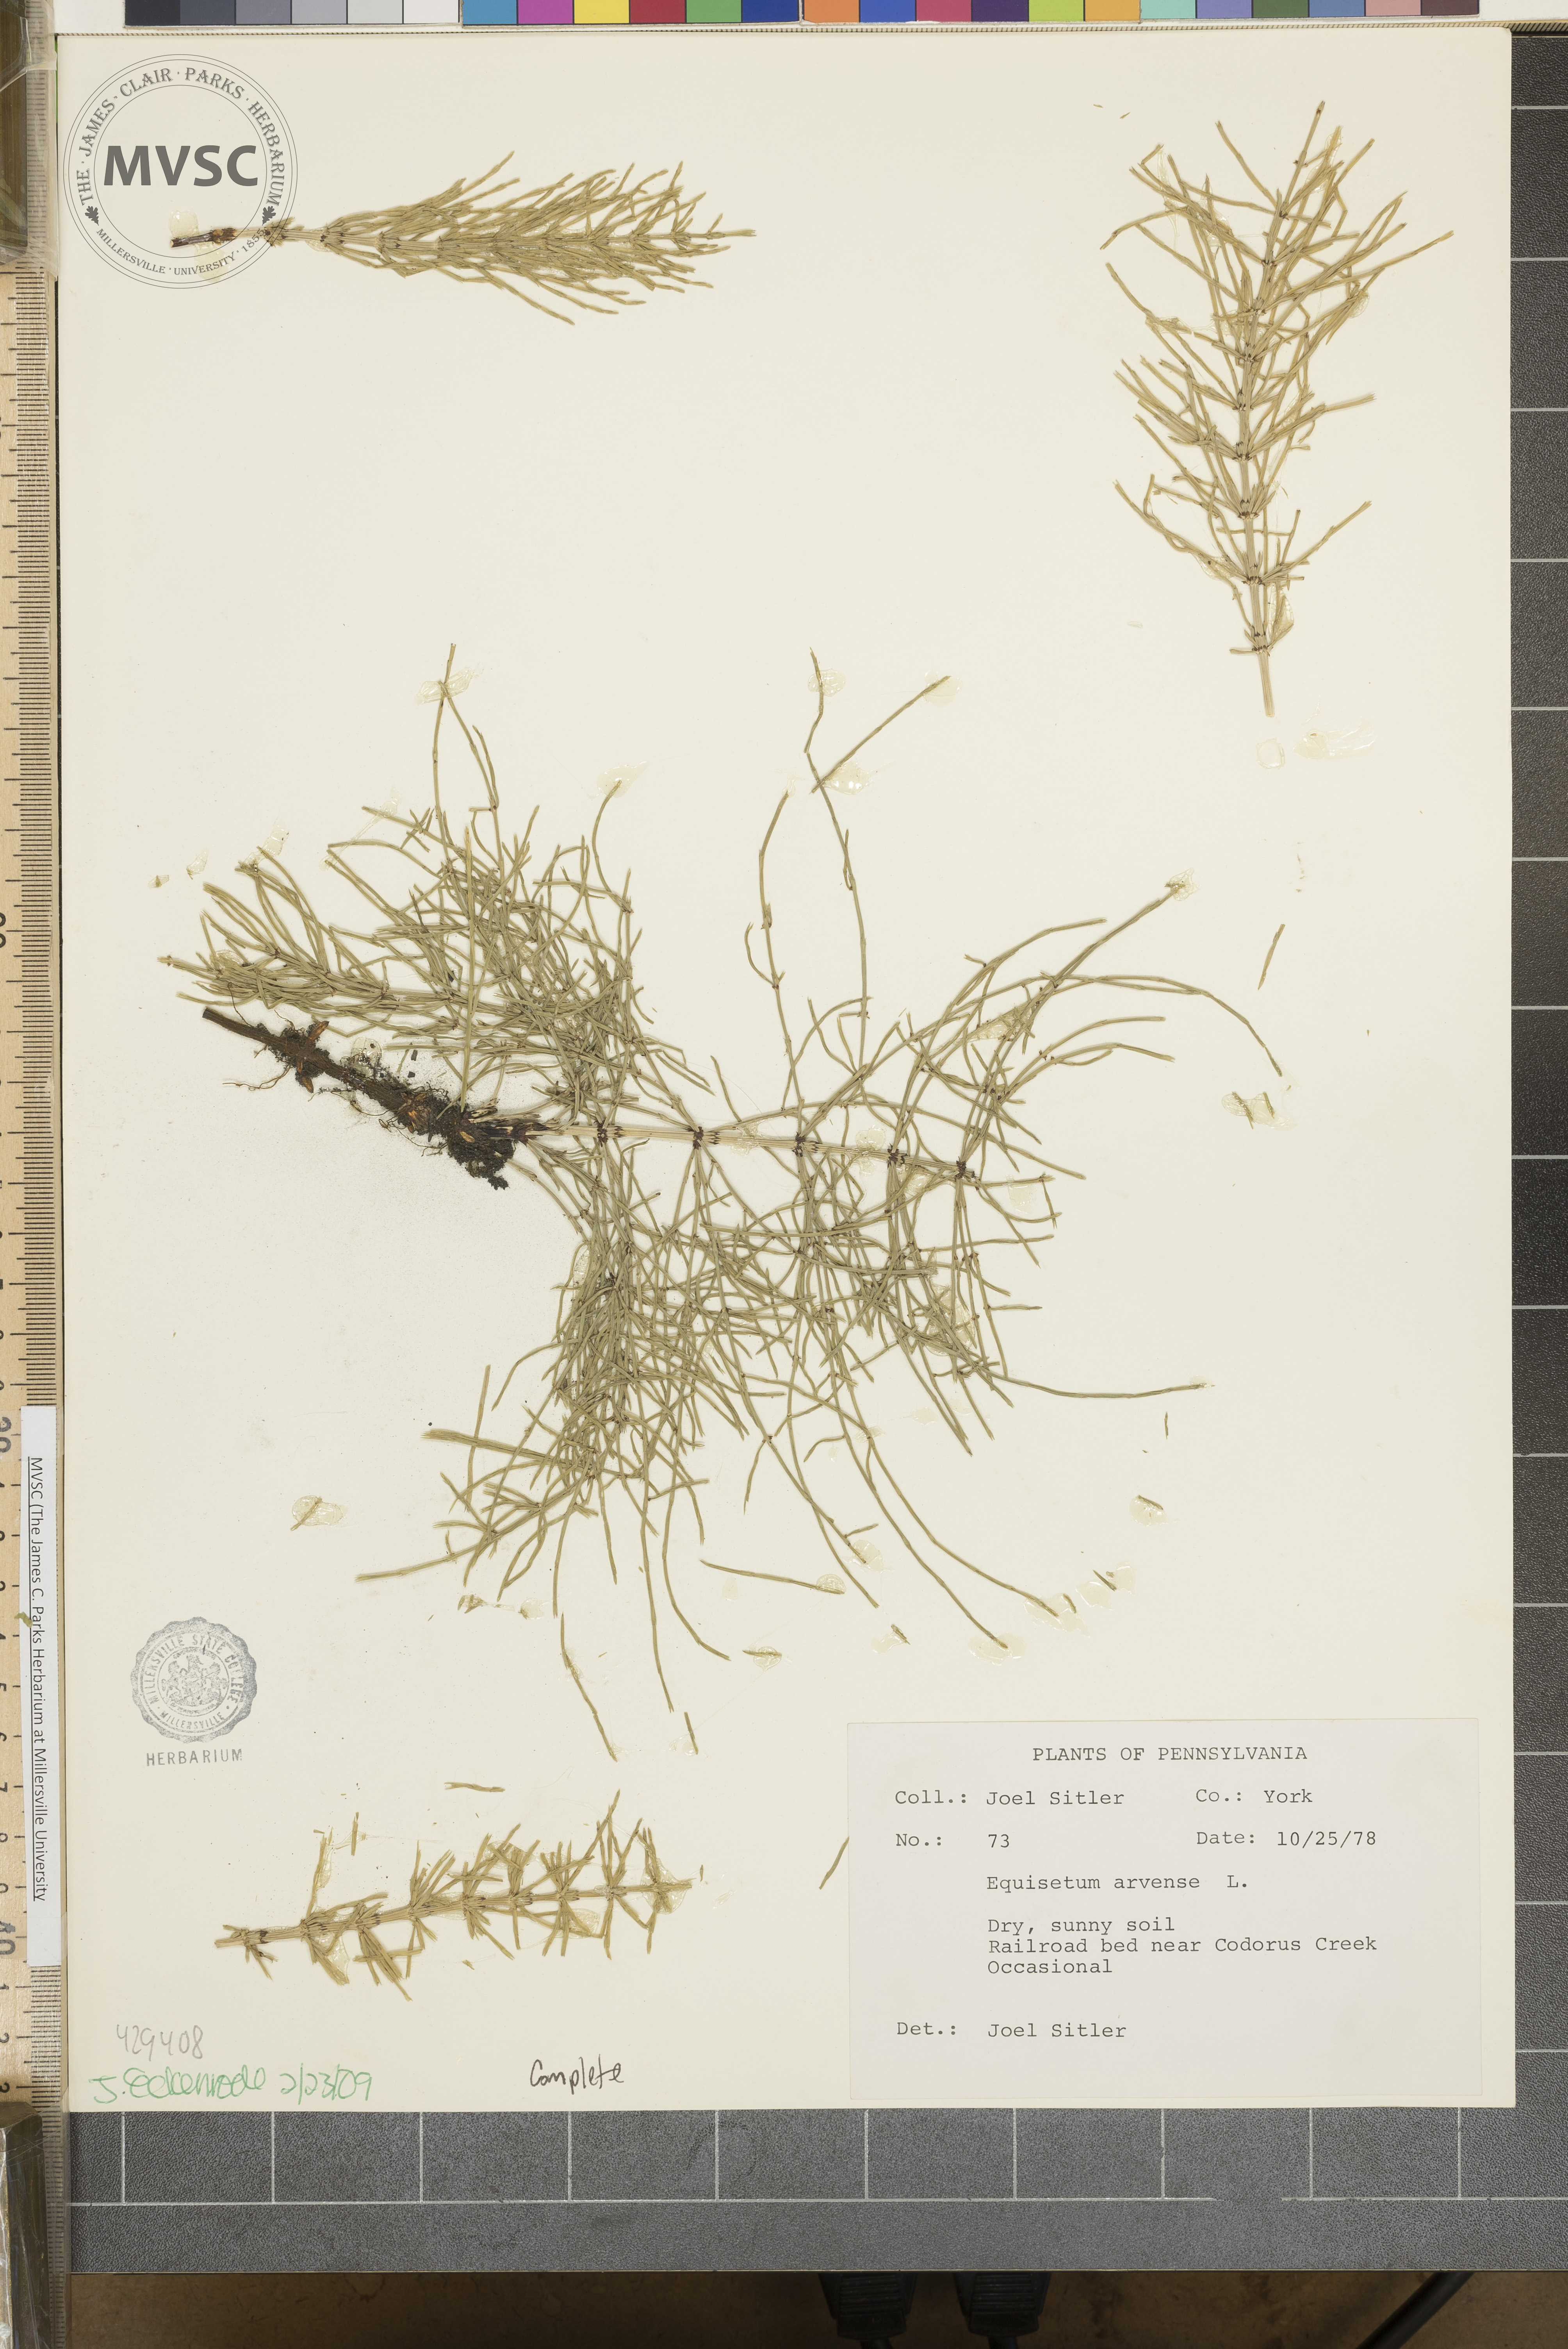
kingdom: Plantae
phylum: Tracheophyta
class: Polypodiopsida
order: Equisetales
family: Equisetaceae
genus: Equisetum
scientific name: Equisetum arvense
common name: Field horsetail
